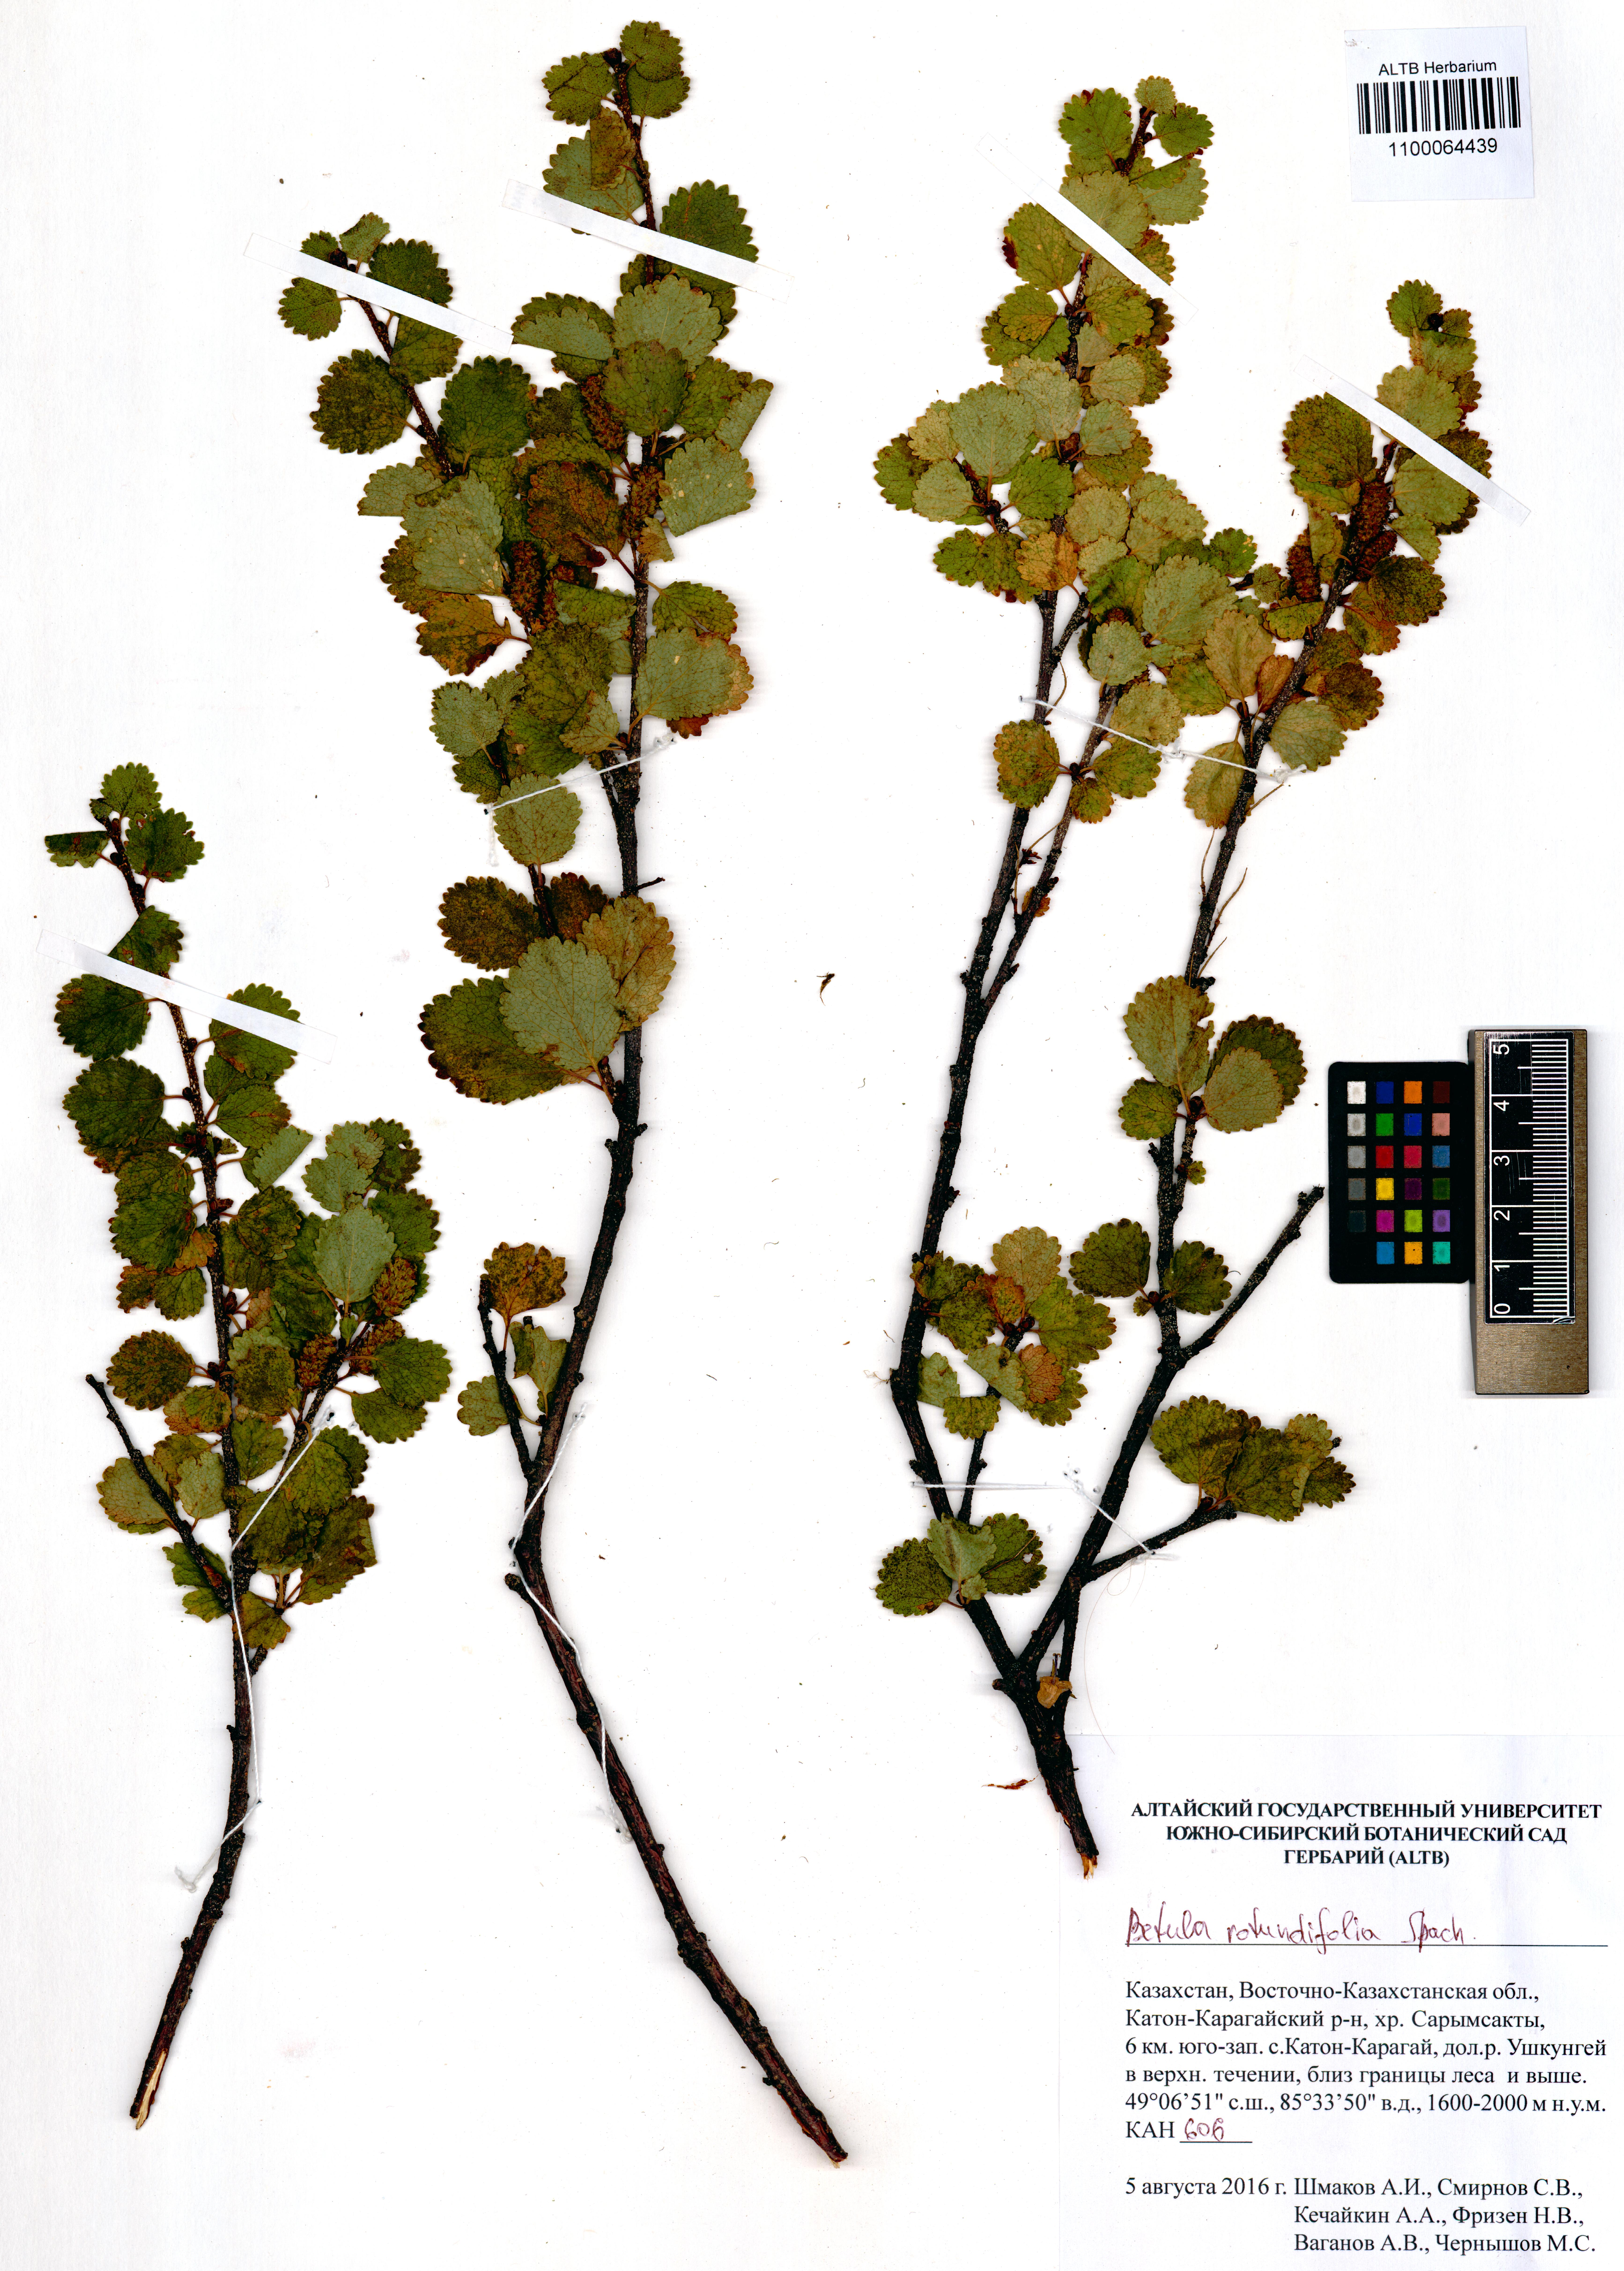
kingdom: Plantae
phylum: Tracheophyta
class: Magnoliopsida
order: Fagales
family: Betulaceae
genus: Betula
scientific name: Betula glandulosa
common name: Dwarf birch
